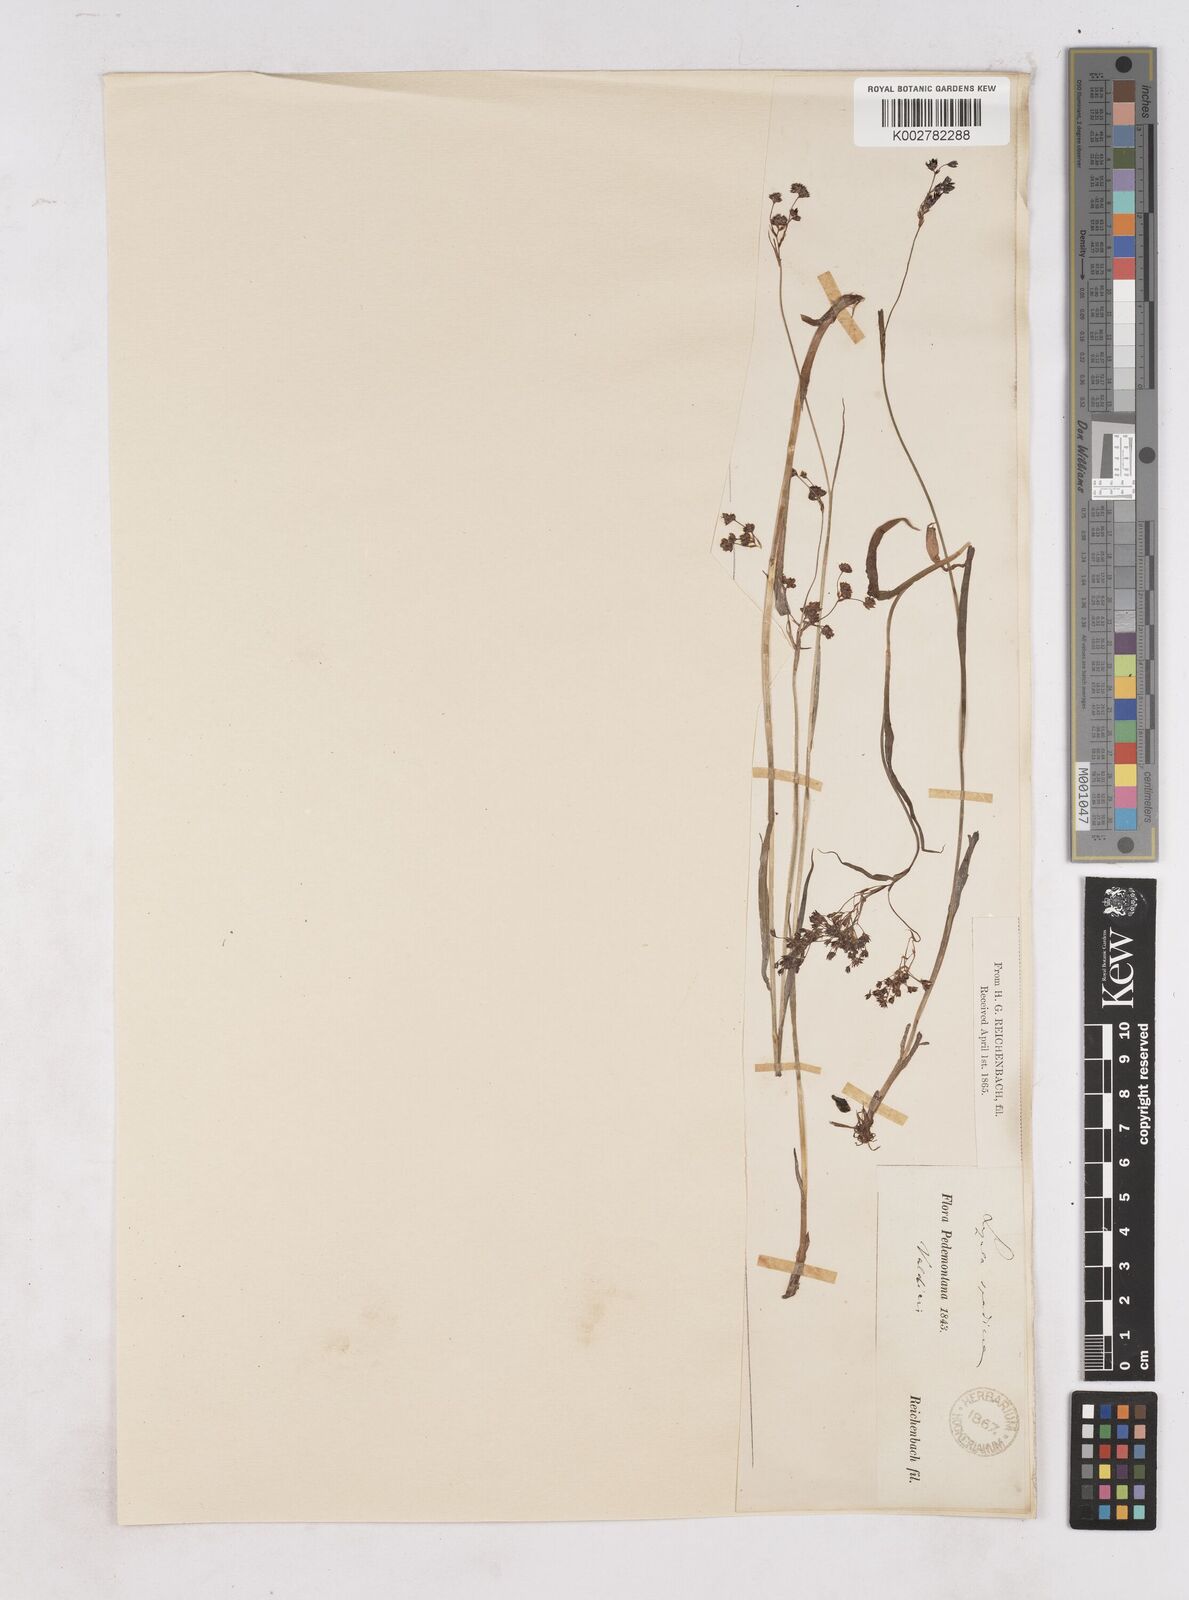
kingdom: Plantae
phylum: Tracheophyta
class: Liliopsida
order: Poales
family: Juncaceae
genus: Luzula
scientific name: Luzula alpinopilosa
